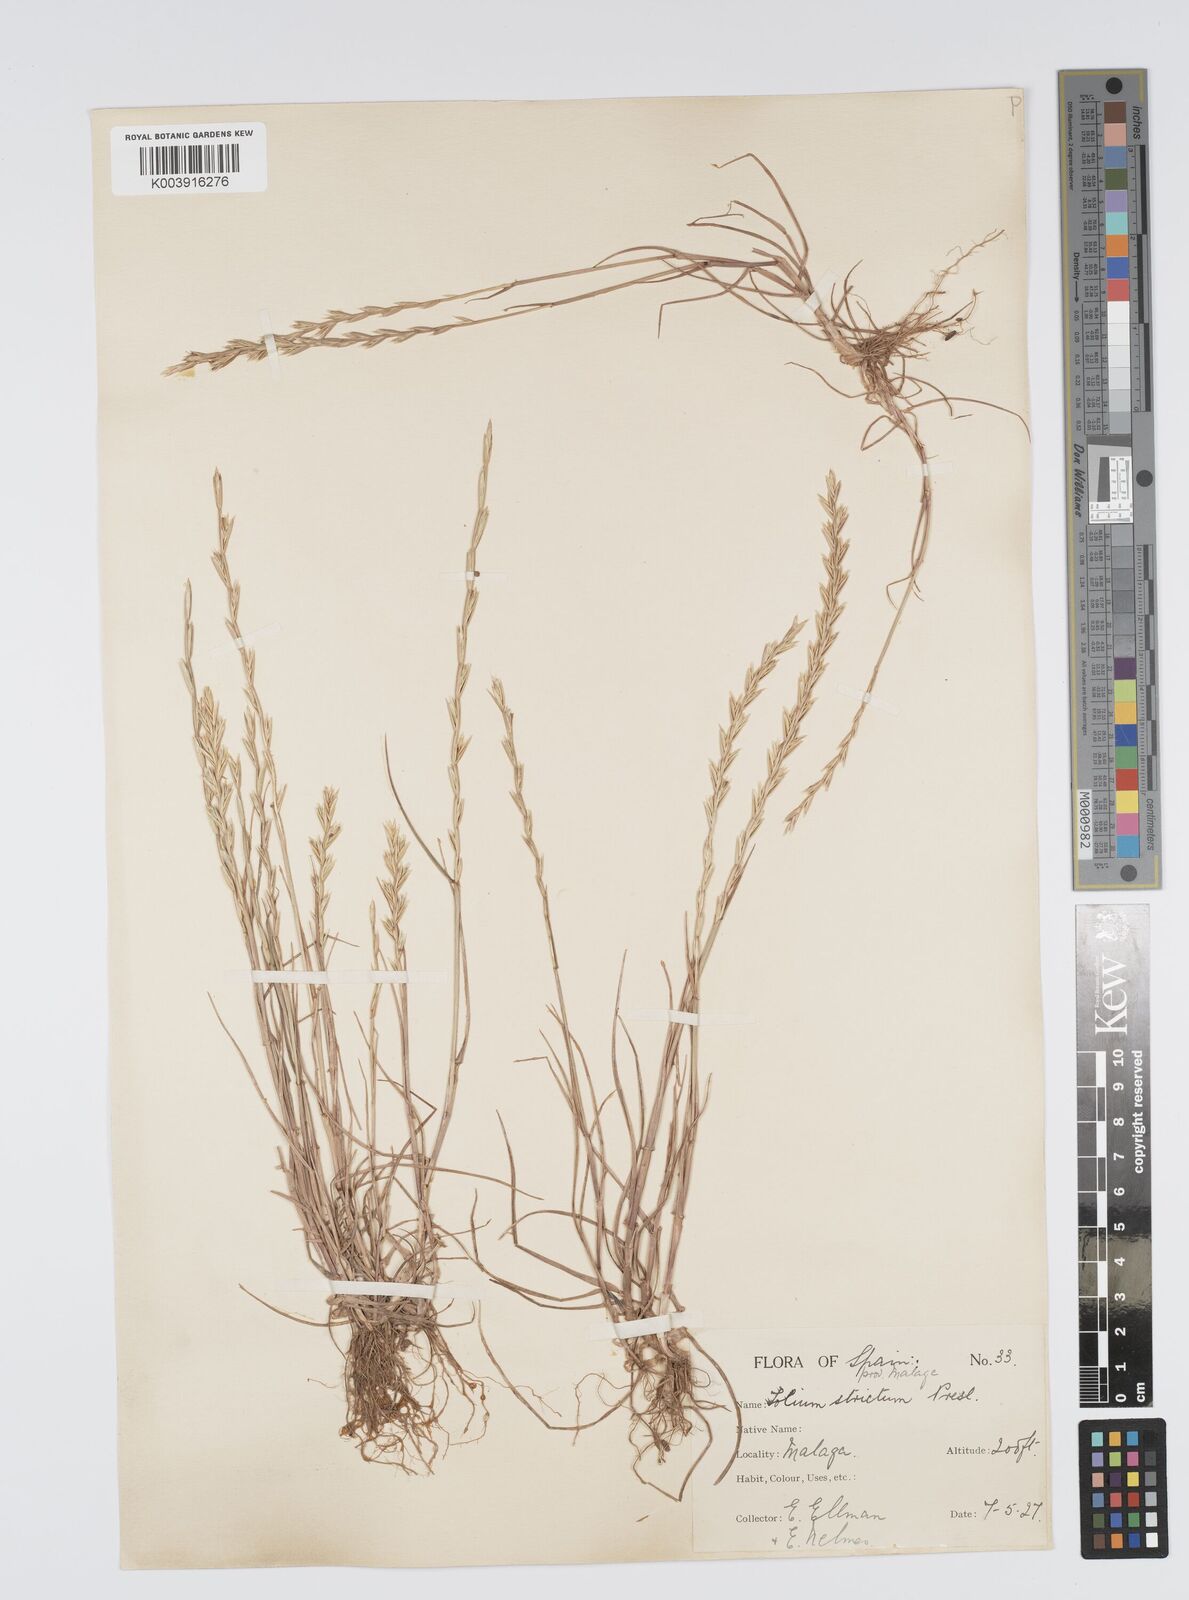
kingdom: Plantae
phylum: Tracheophyta
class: Liliopsida
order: Poales
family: Poaceae
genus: Lolium
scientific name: Lolium rigidum
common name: Wimmera ryegrass
